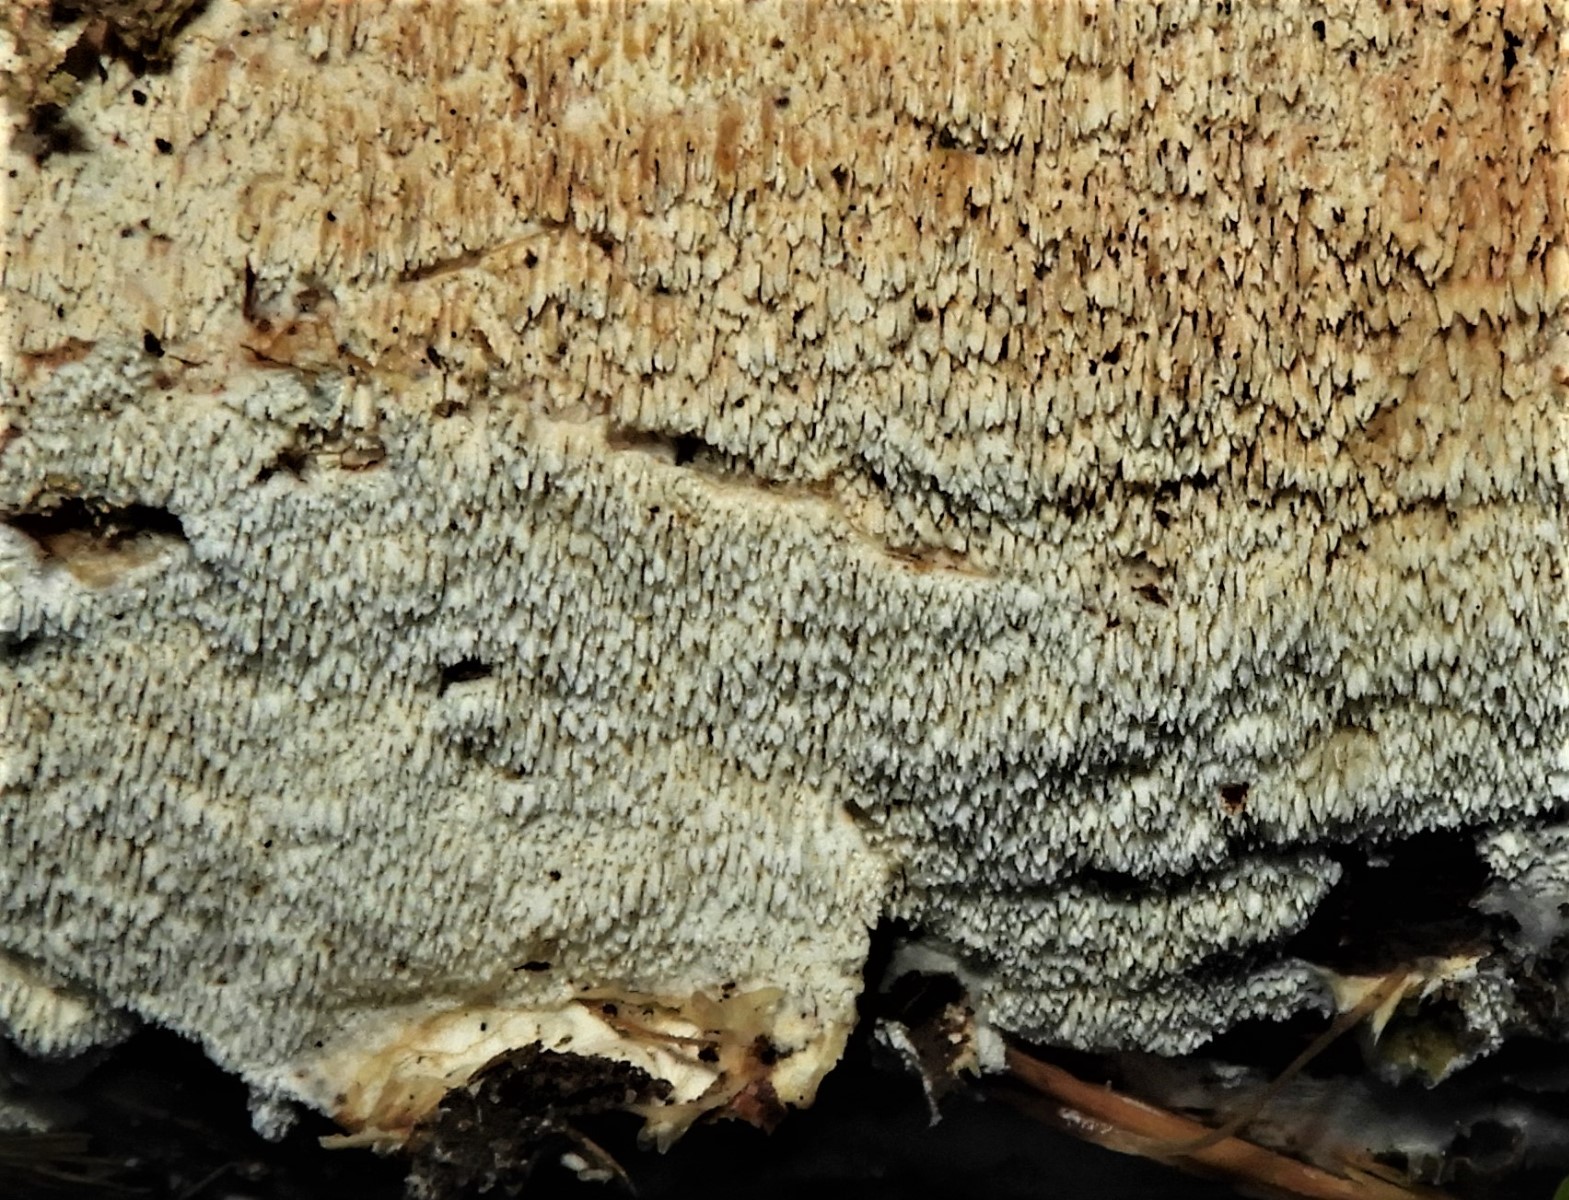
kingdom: Fungi
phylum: Basidiomycota
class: Agaricomycetes
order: Hymenochaetales
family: Schizoporaceae
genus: Xylodon
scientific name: Xylodon radula
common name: grovtandet kalkskind
